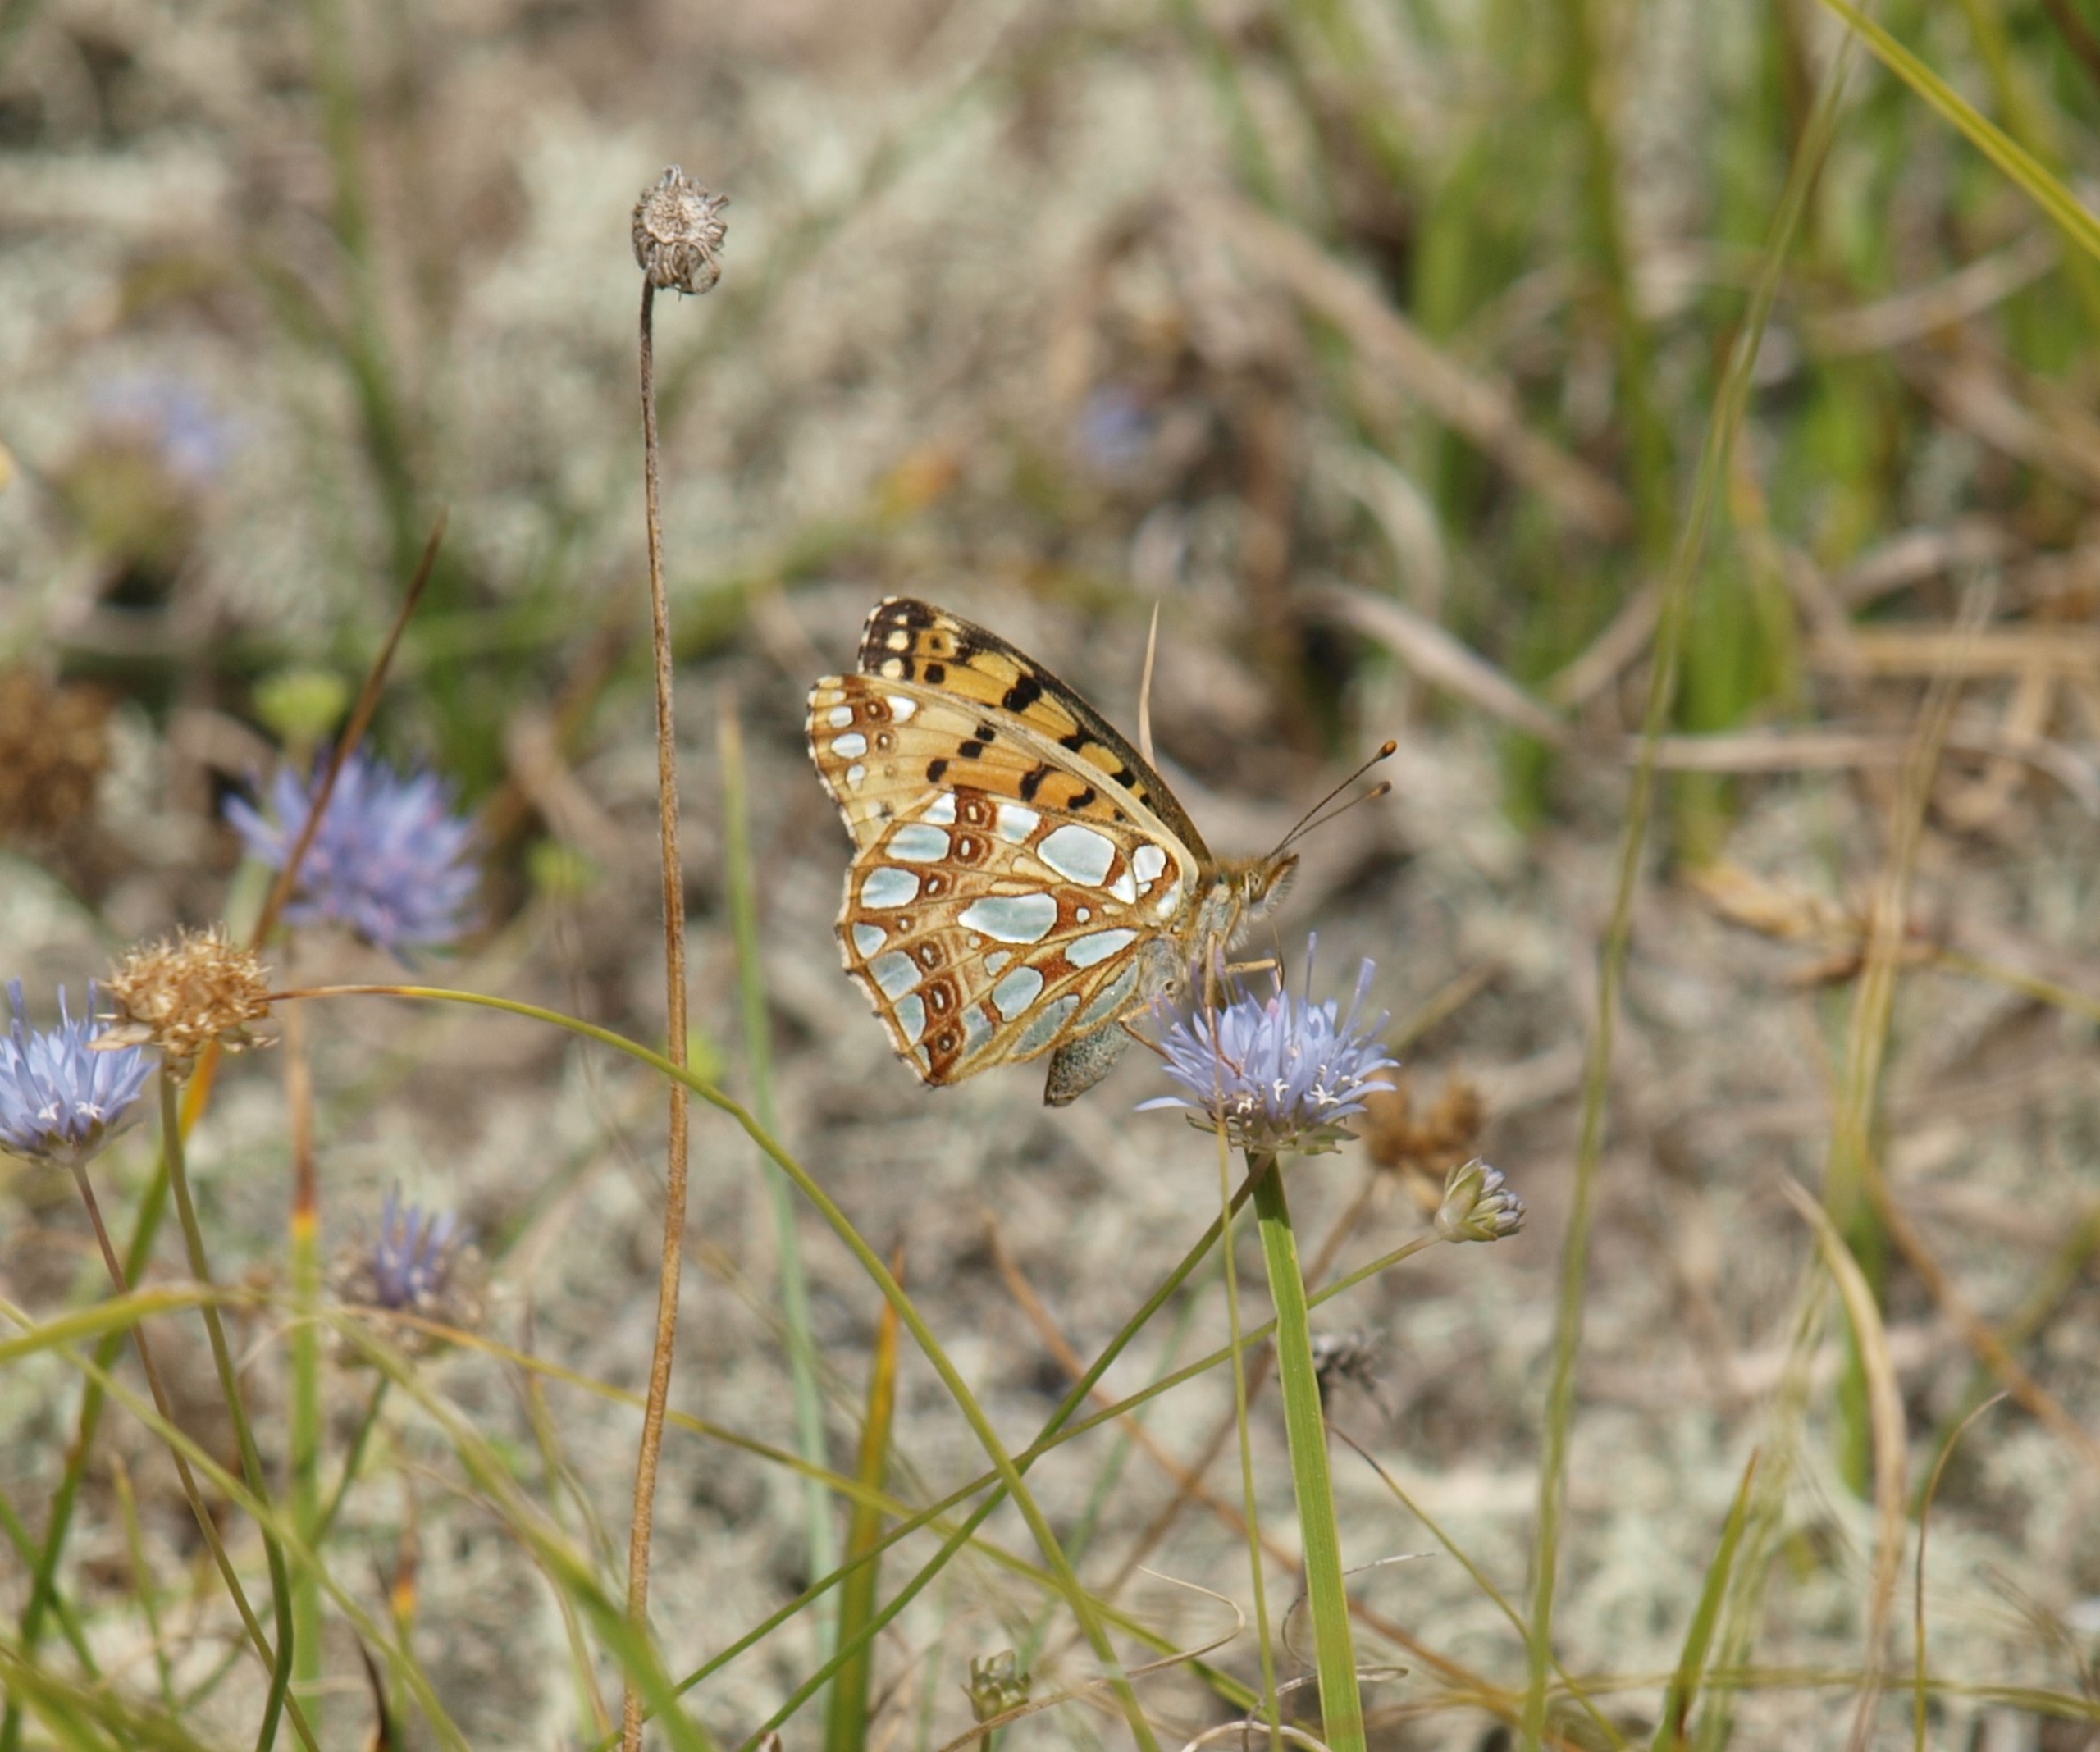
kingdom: Animalia
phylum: Arthropoda
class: Insecta
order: Lepidoptera
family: Nymphalidae
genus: Issoria
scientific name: Issoria lathonia
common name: Storplettet perlemorsommerfugl
